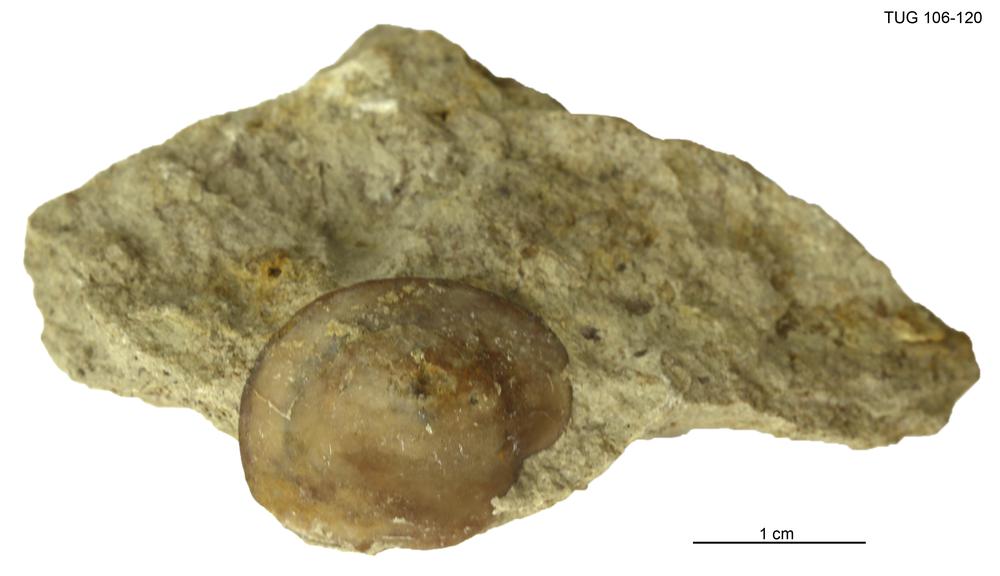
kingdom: Animalia
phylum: Arthropoda
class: Trilobita
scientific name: Trilobita
